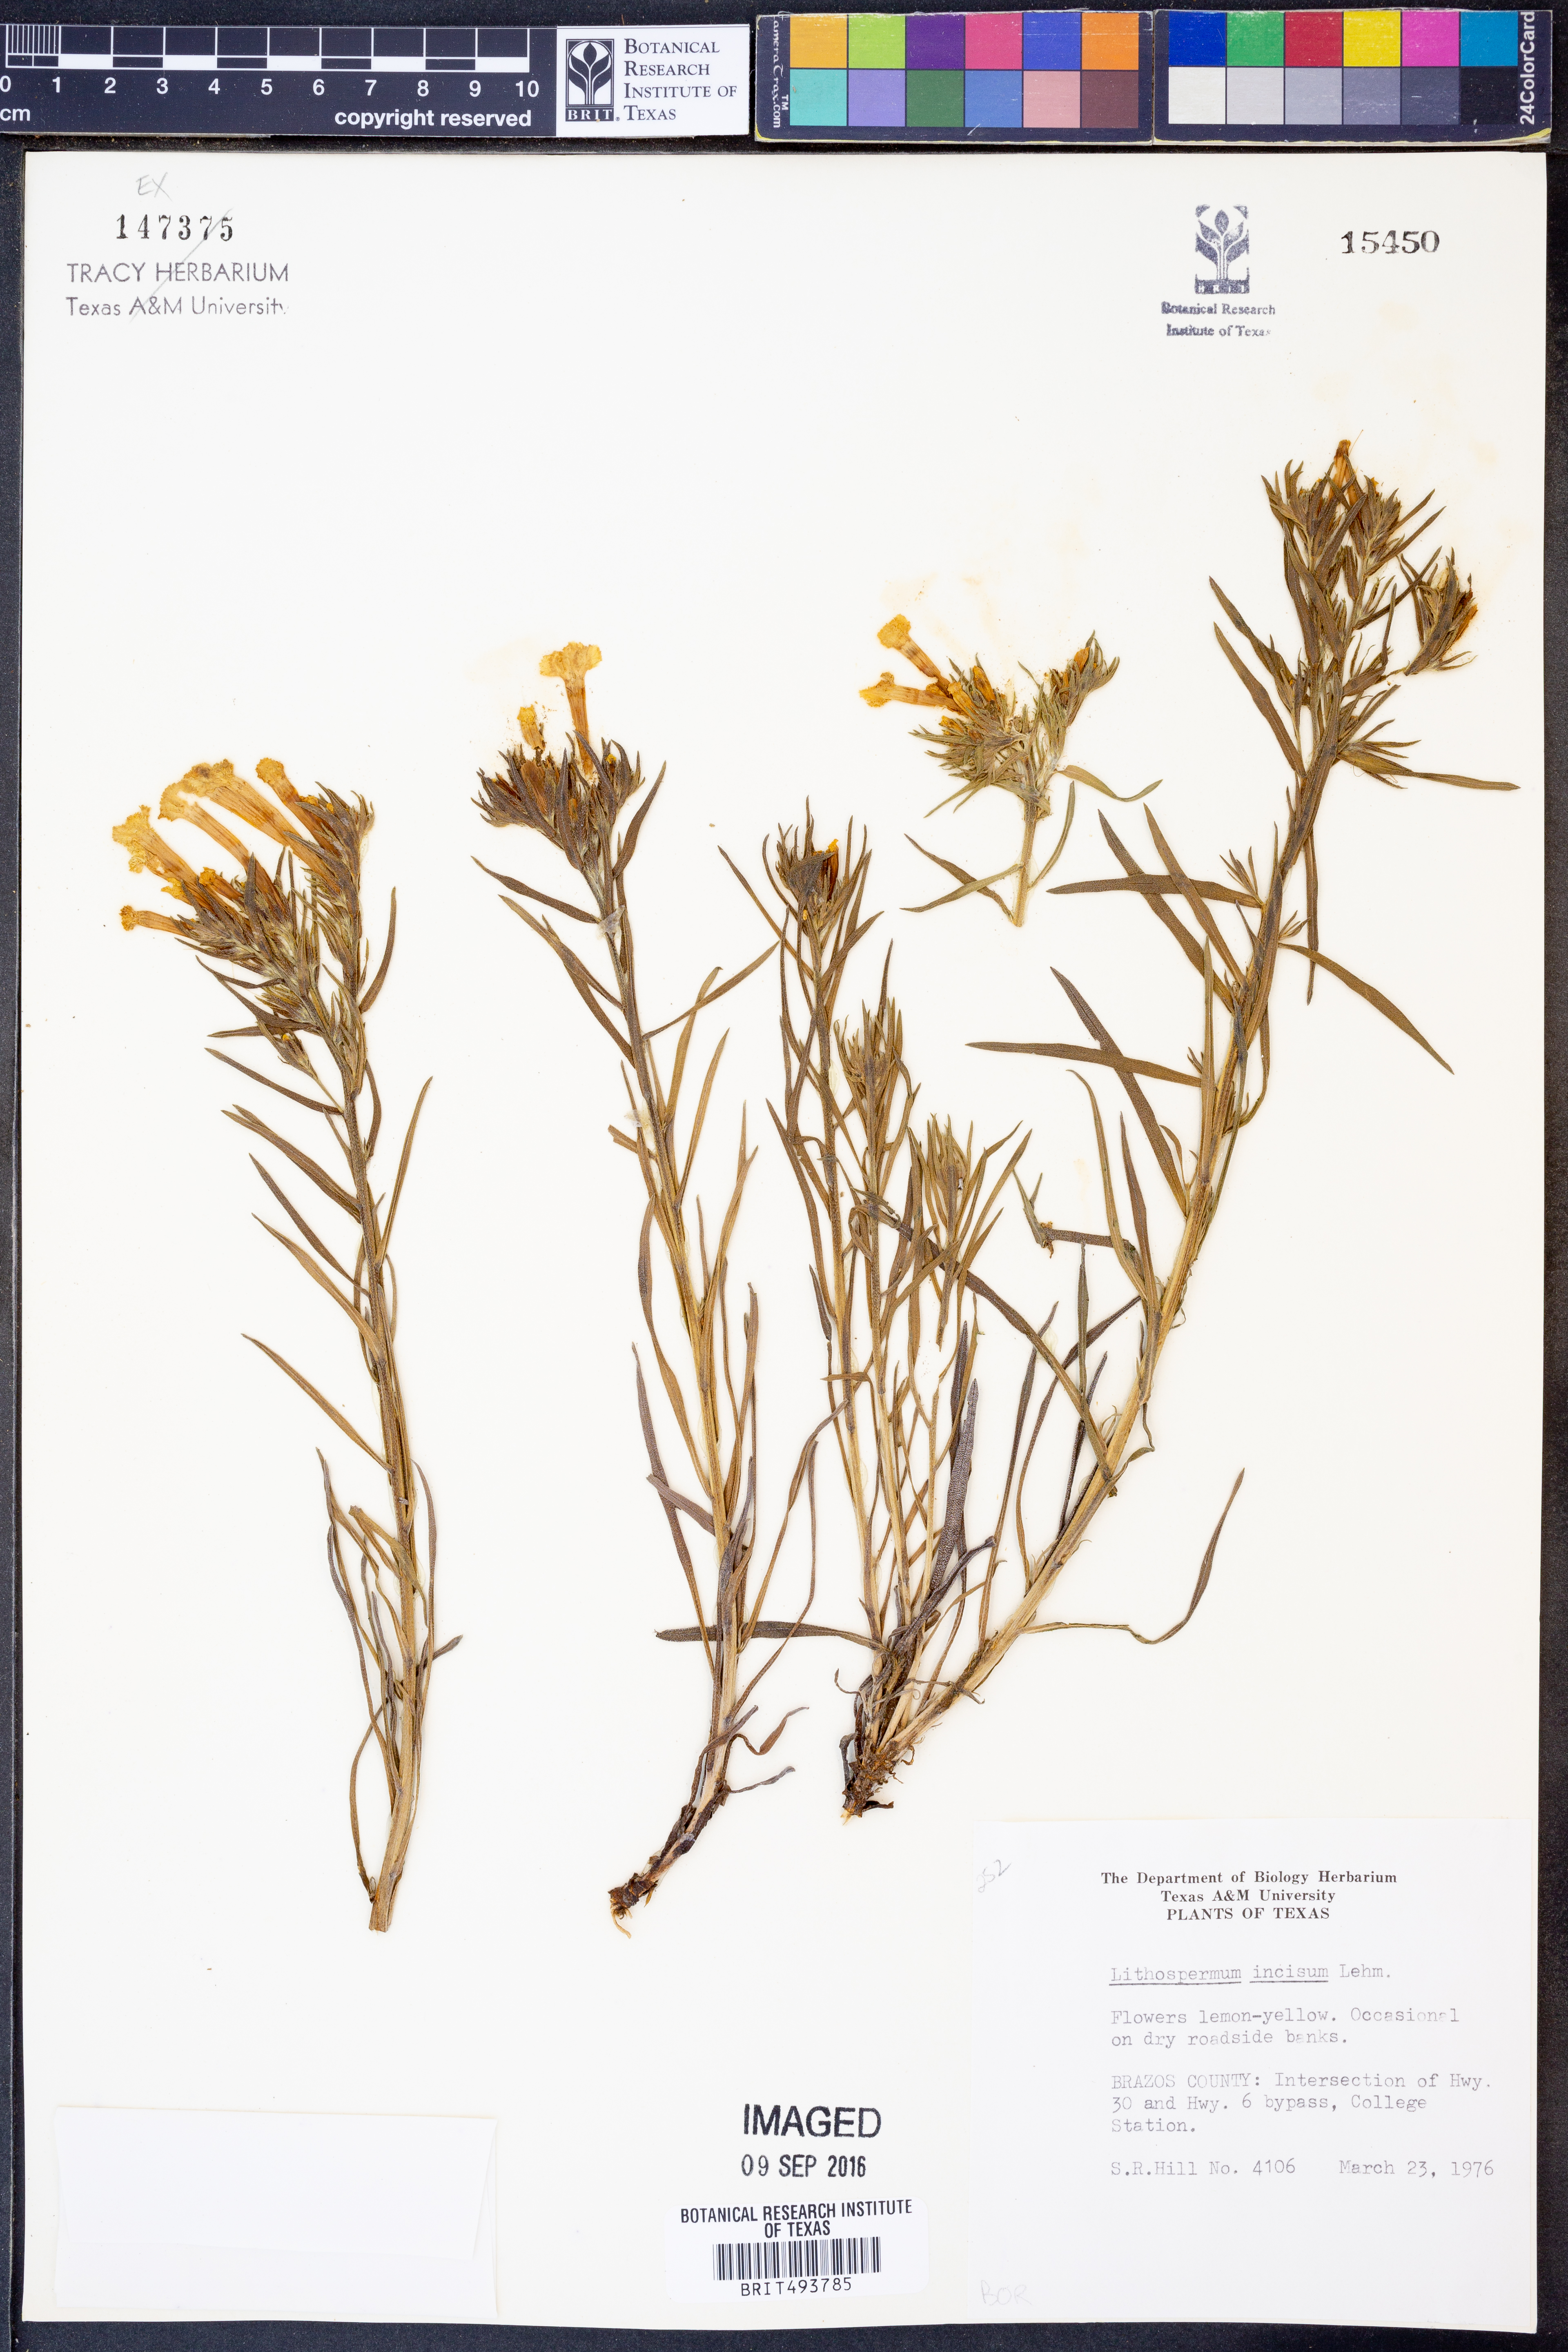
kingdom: Plantae
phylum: Tracheophyta
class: Magnoliopsida
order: Boraginales
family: Boraginaceae
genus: Lithospermum
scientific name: Lithospermum incisum
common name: Fringed gromwell
